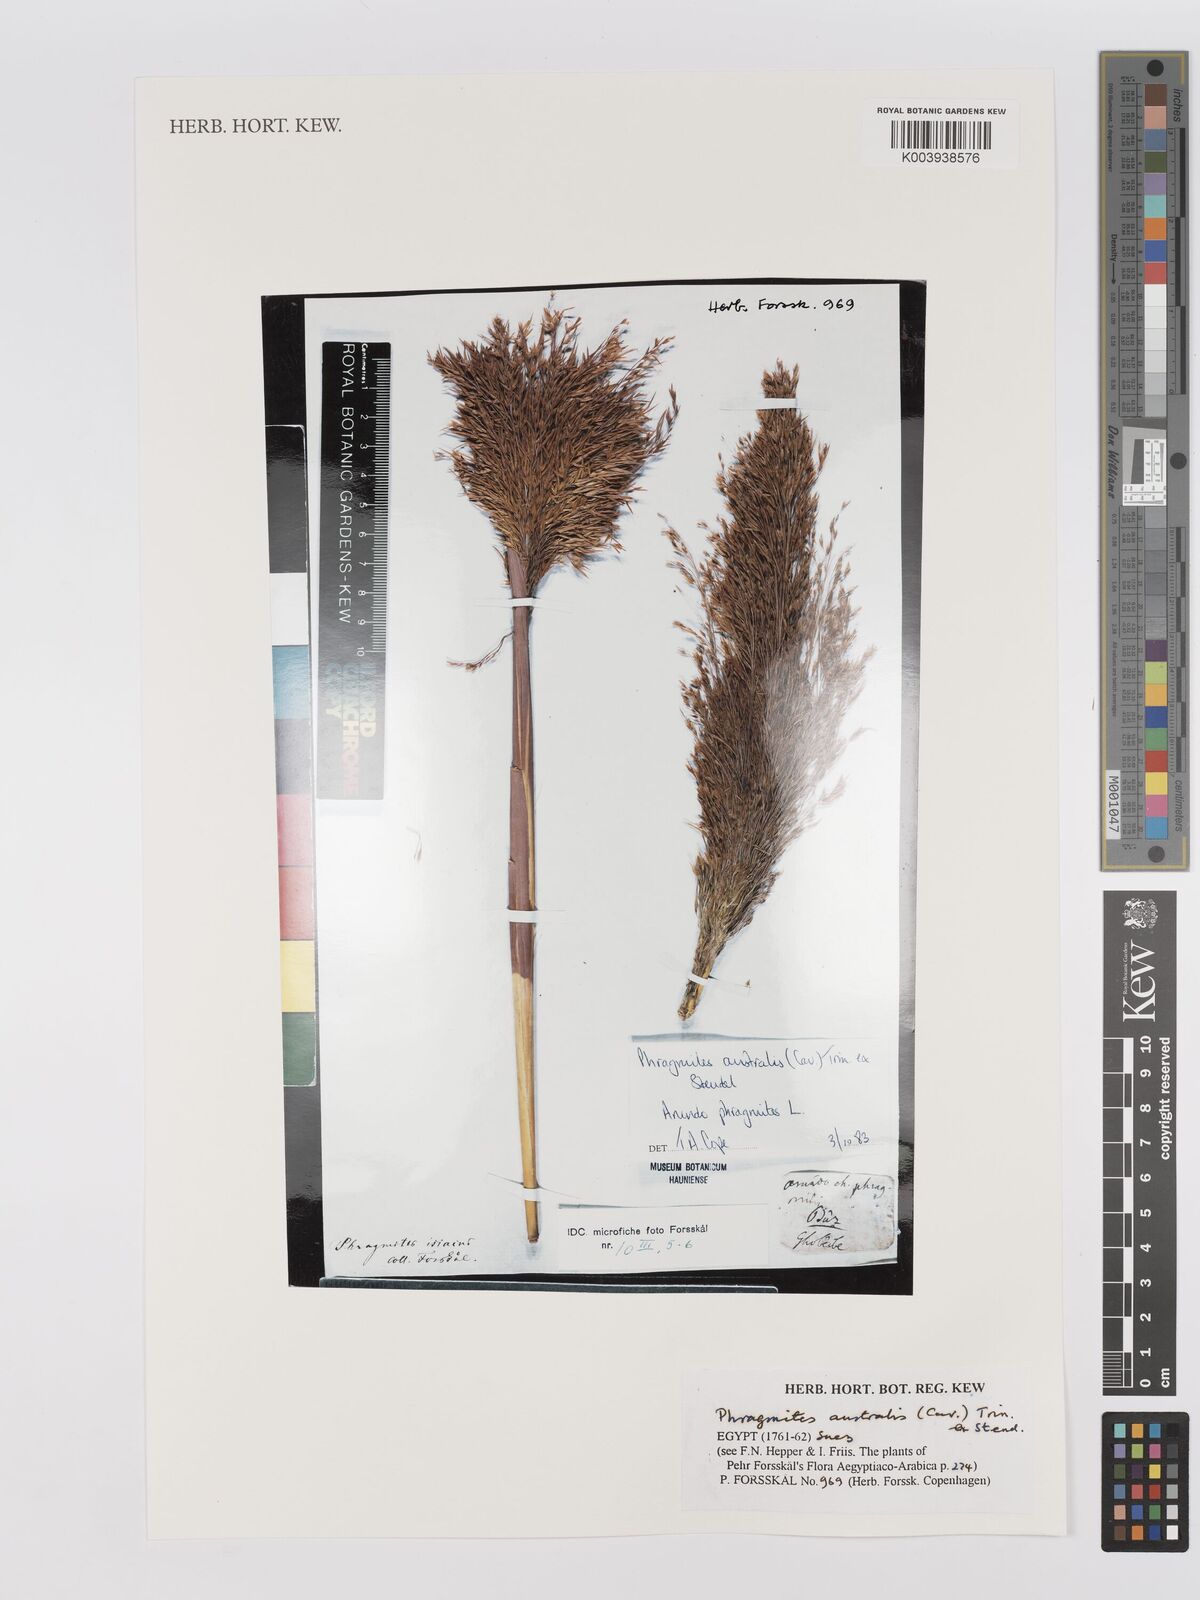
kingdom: Plantae
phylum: Tracheophyta
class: Liliopsida
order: Poales
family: Poaceae
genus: Phragmites
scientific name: Phragmites australis
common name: Common reed
